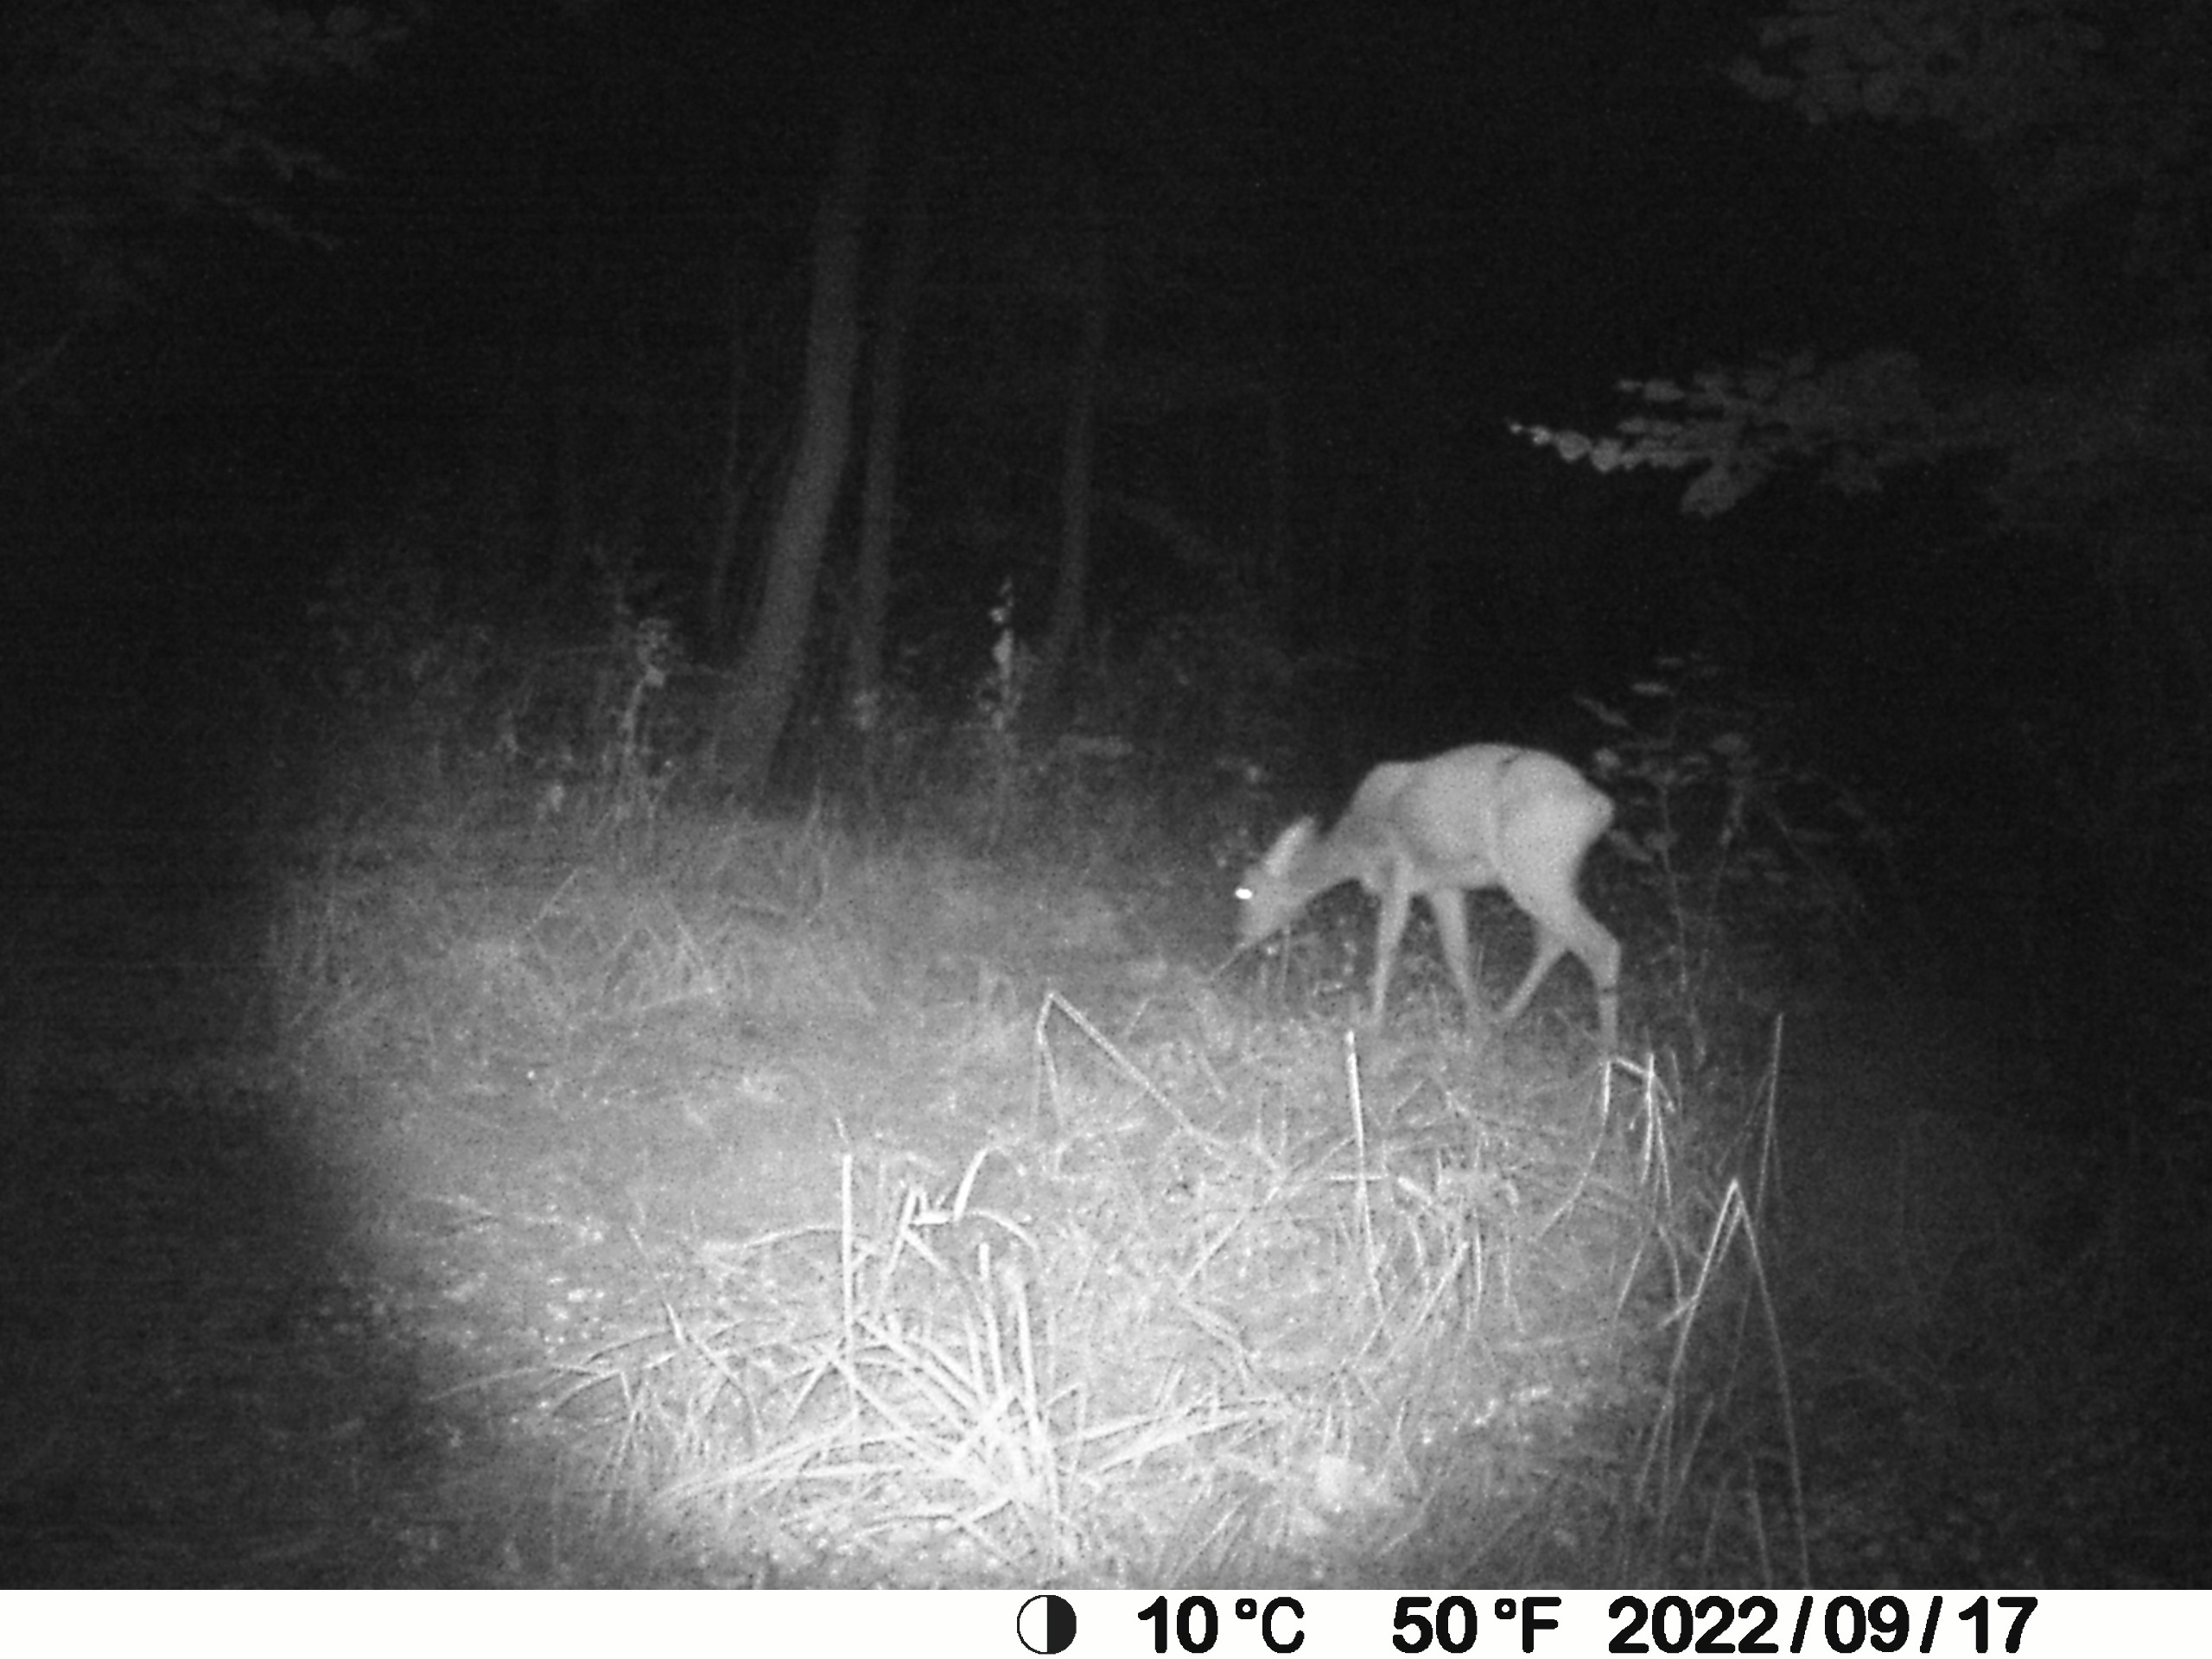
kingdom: Animalia
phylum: Chordata
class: Mammalia
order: Artiodactyla
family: Cervidae
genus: Capreolus
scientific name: Capreolus capreolus
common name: Rådyr
